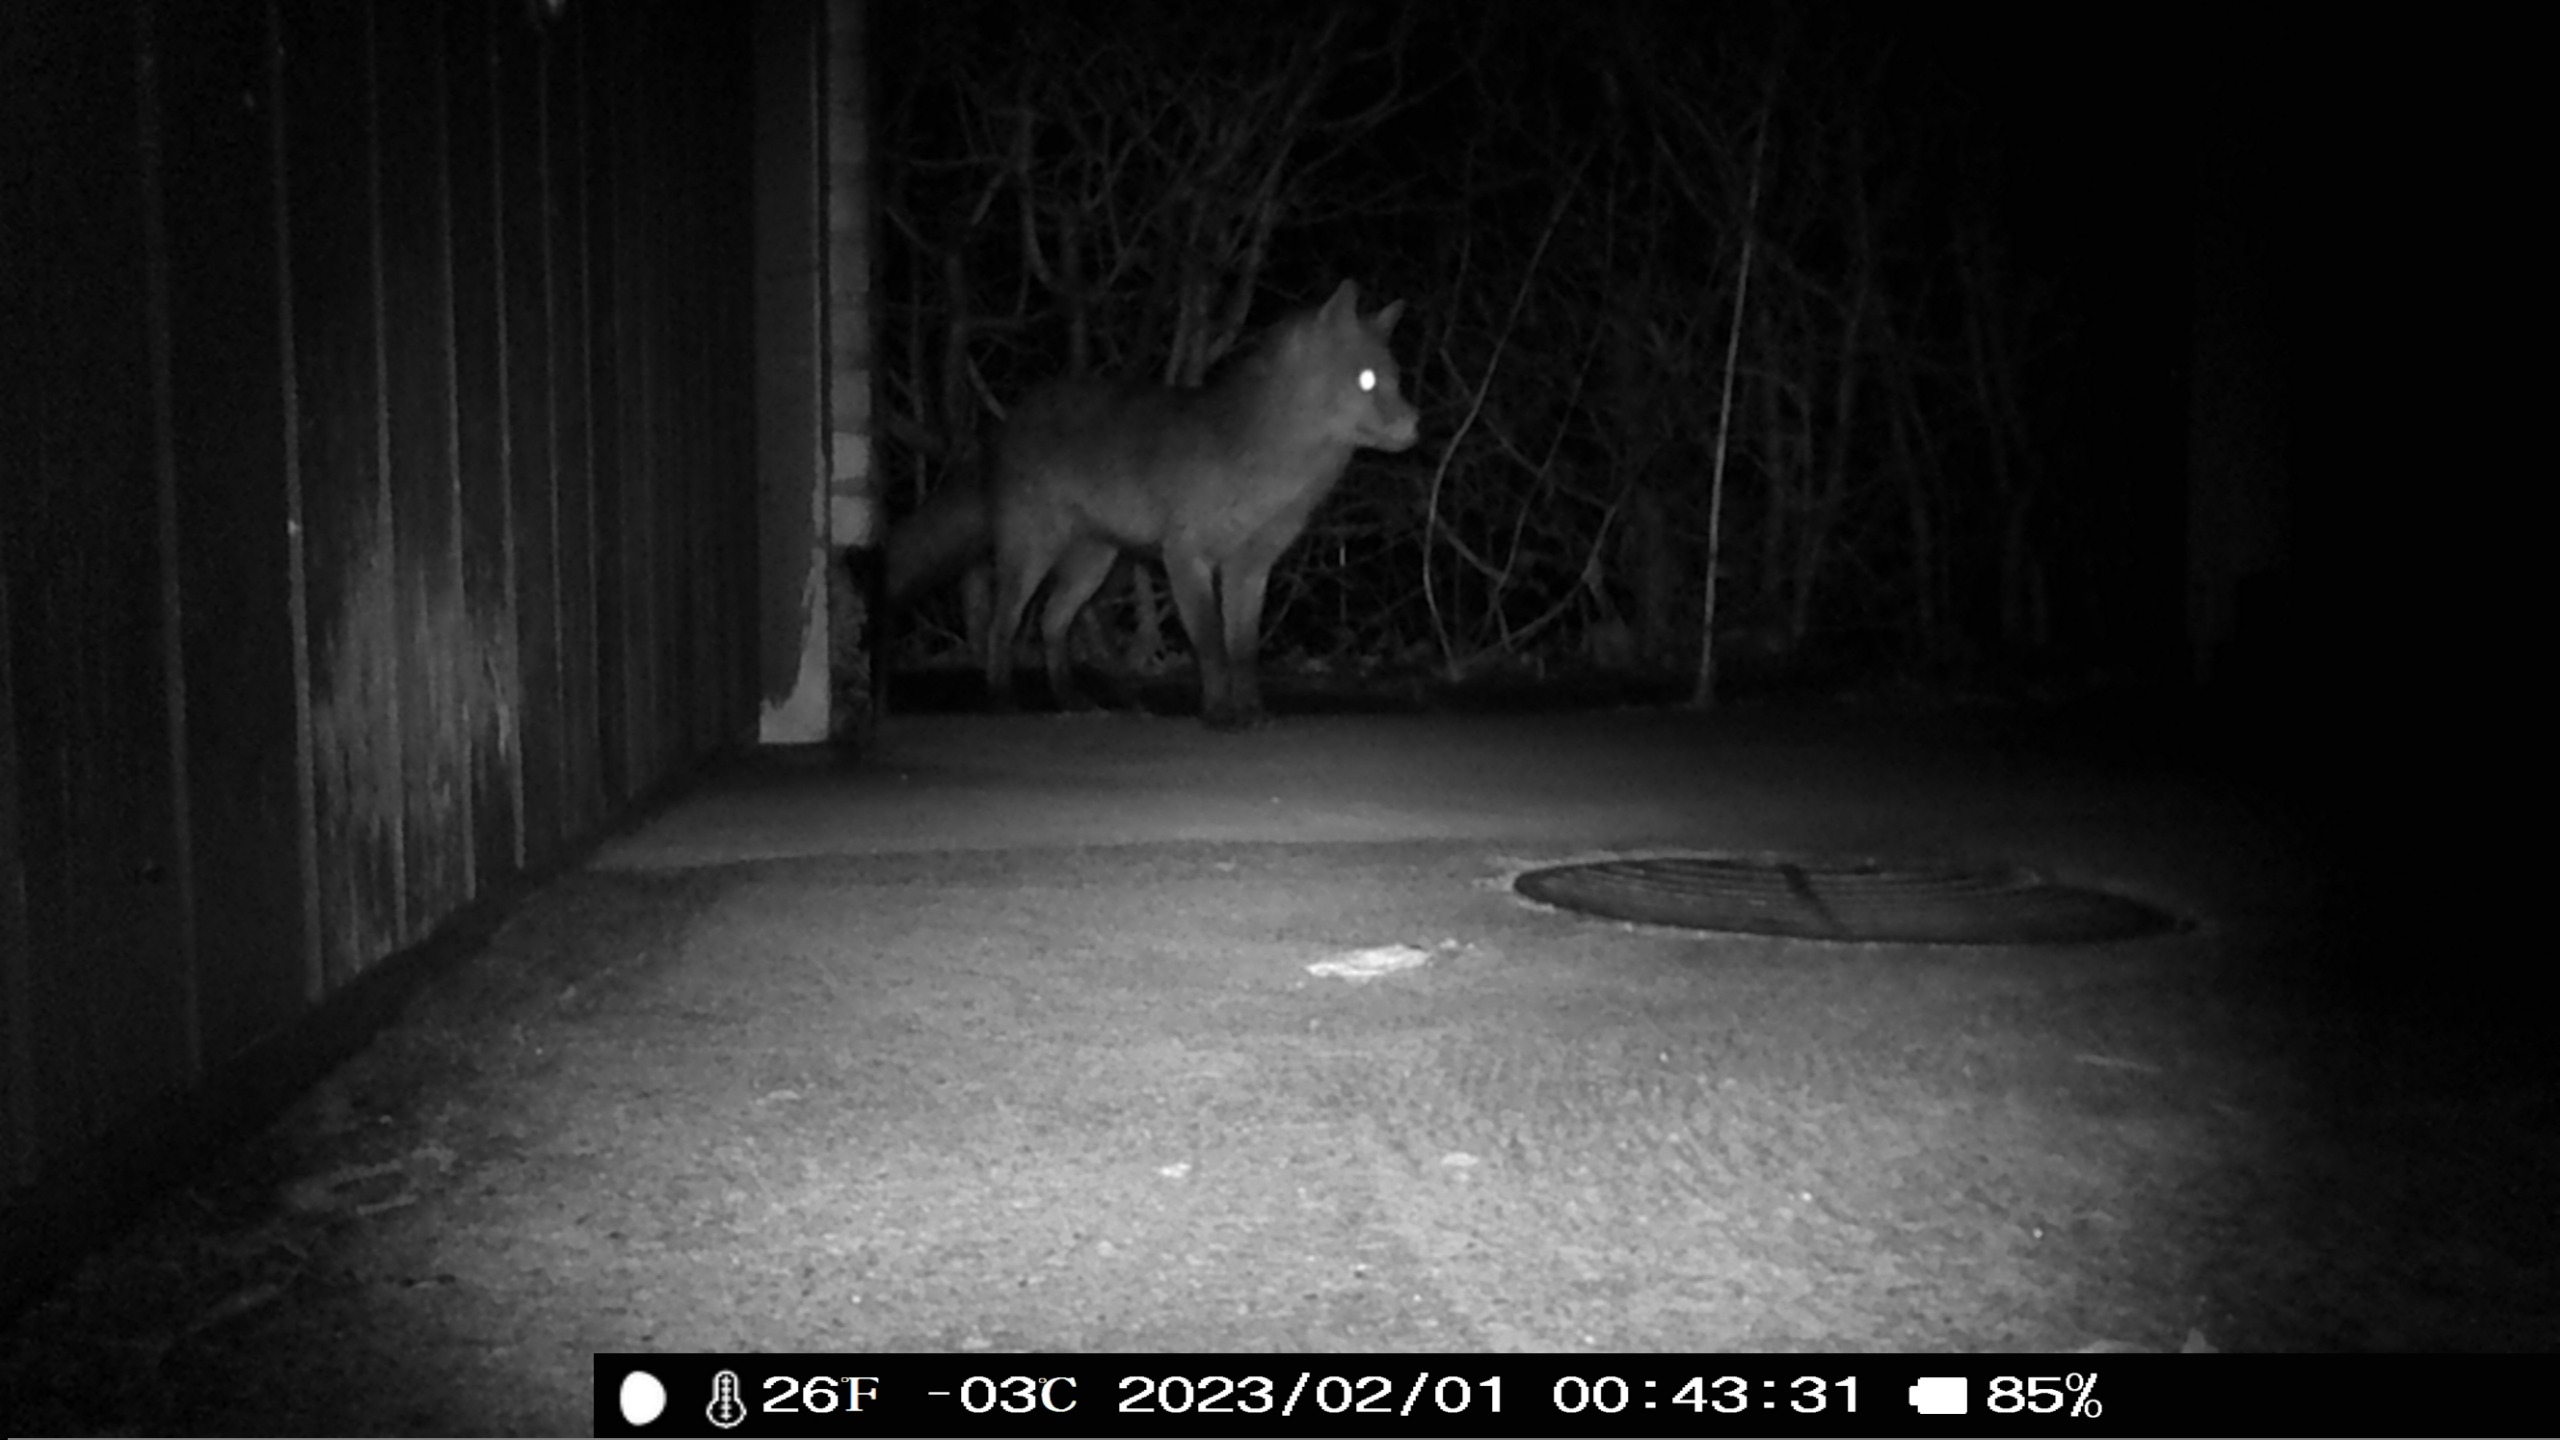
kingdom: Animalia
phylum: Chordata
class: Mammalia
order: Carnivora
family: Canidae
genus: Vulpes
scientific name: Vulpes vulpes
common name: Ræv
